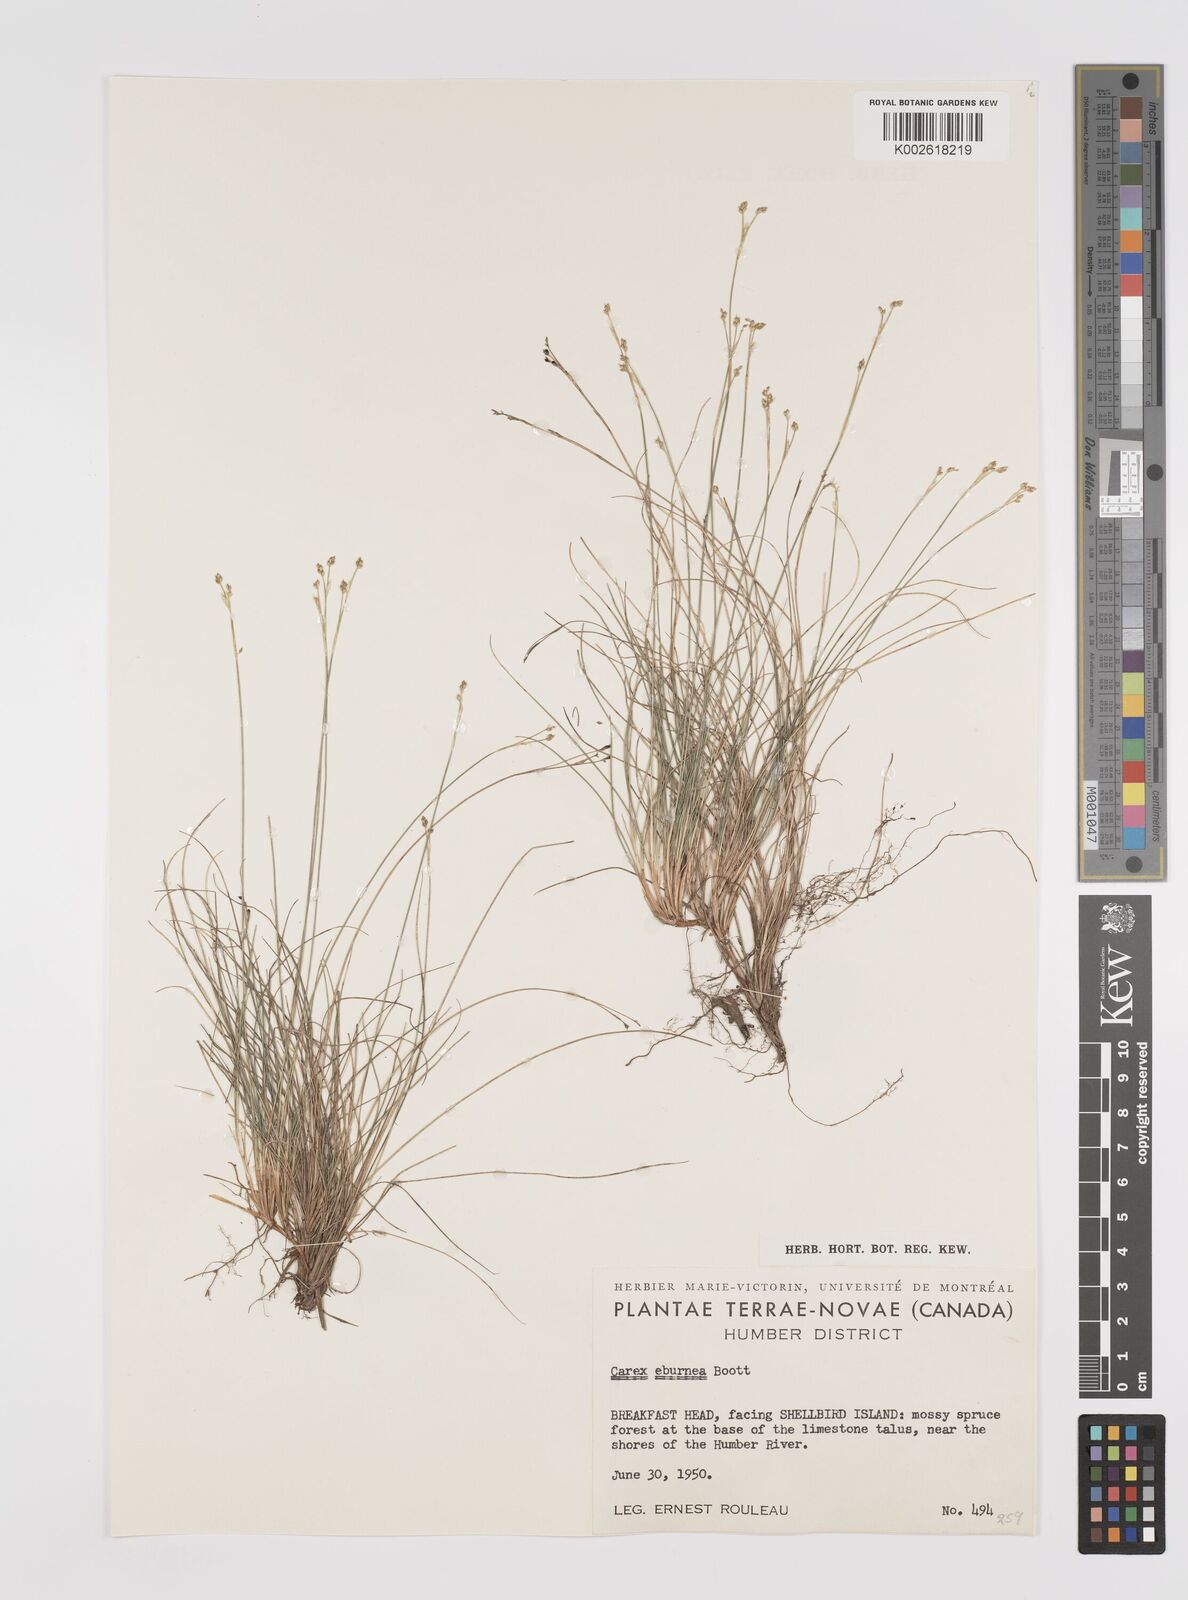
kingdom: Plantae
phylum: Tracheophyta
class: Liliopsida
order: Poales
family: Cyperaceae
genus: Carex
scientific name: Carex eburnea
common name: Bristle-leaved sedge
